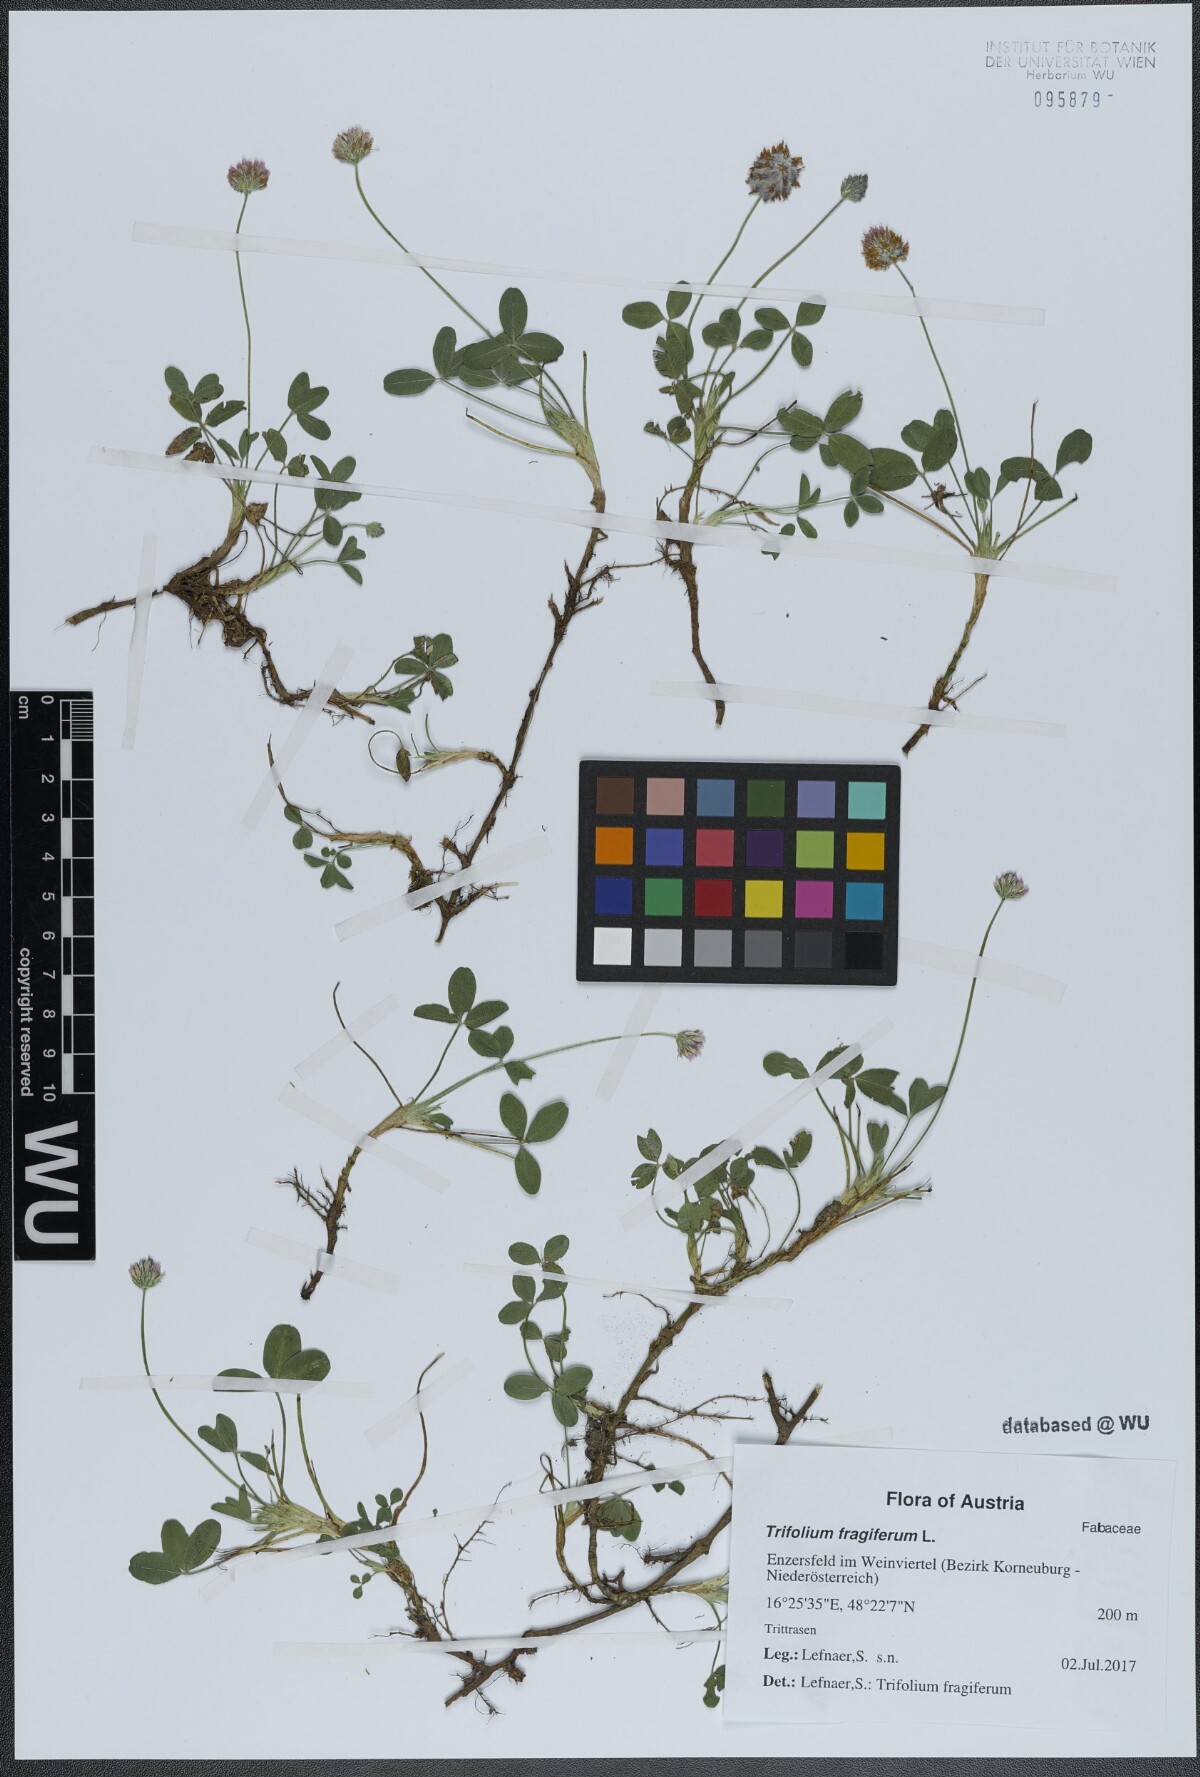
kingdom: Plantae
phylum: Tracheophyta
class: Magnoliopsida
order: Fabales
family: Fabaceae
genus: Trifolium
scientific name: Trifolium fragiferum
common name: Strawberry clover
